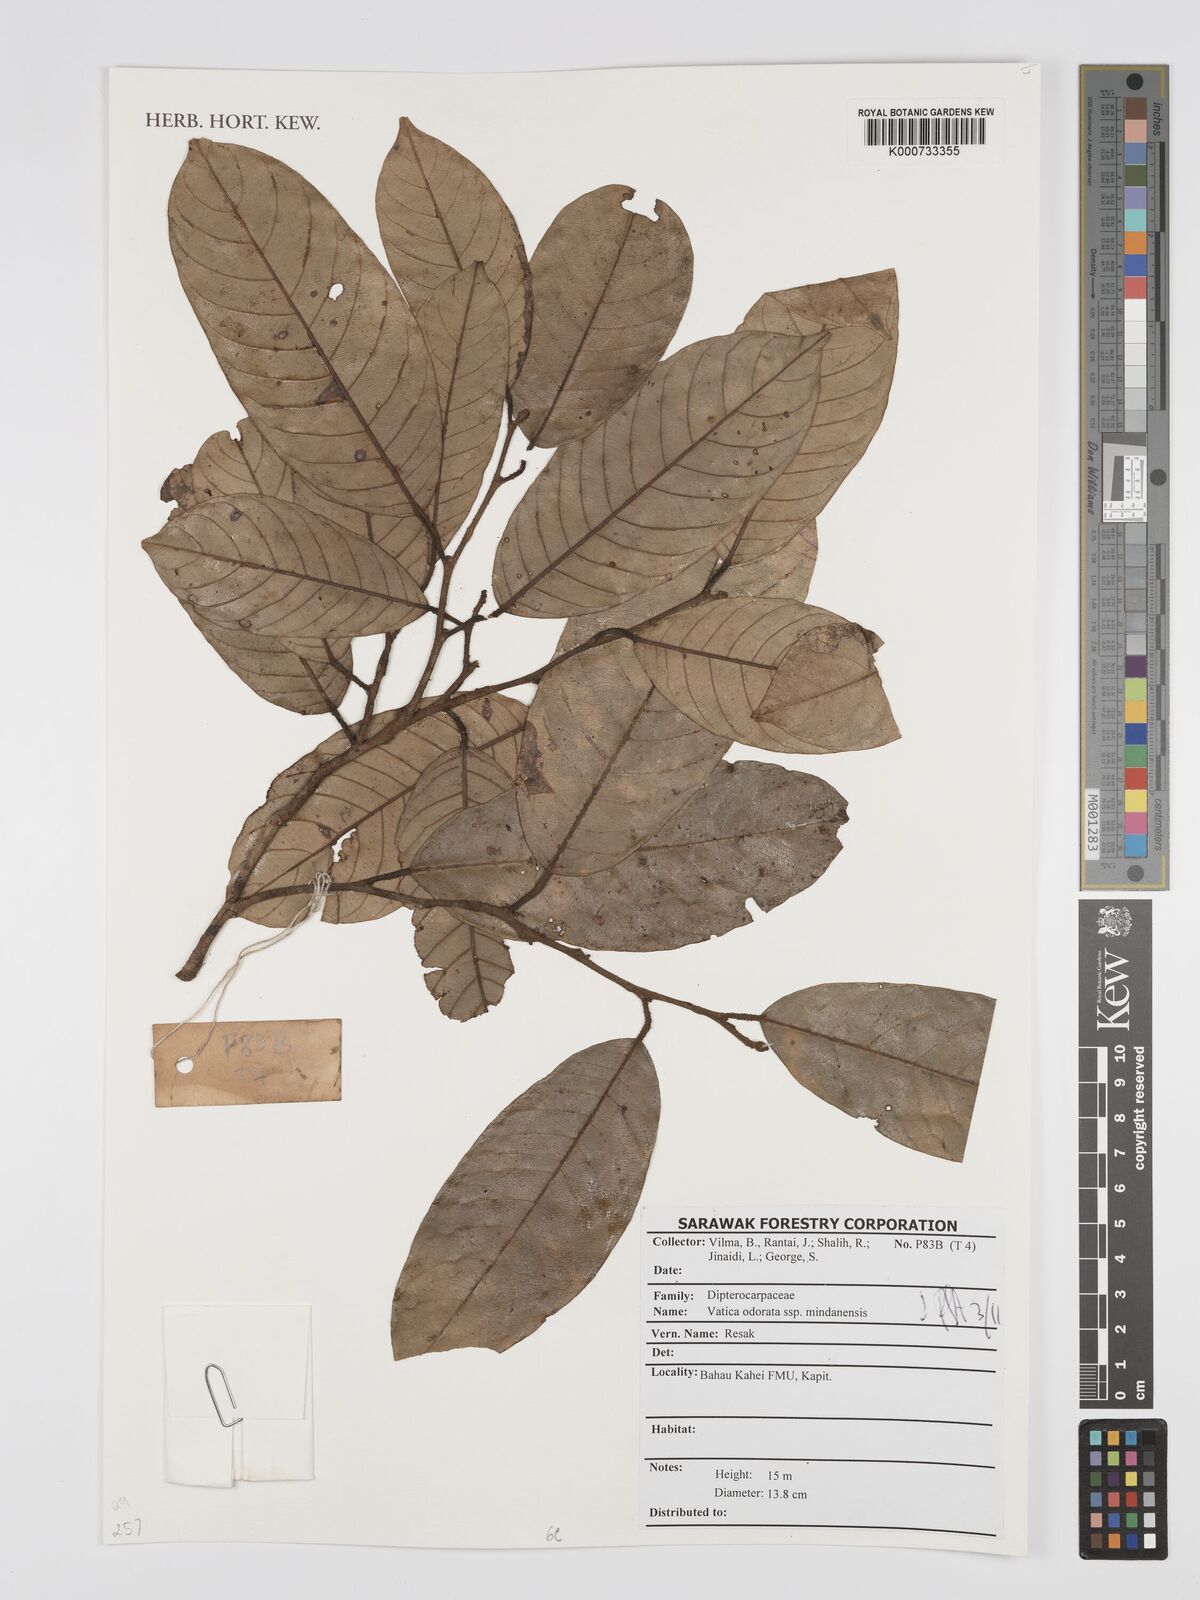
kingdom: Plantae
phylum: Tracheophyta
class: Magnoliopsida
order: Malvales
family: Dipterocarpaceae
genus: Vatica
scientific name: Vatica odorata
